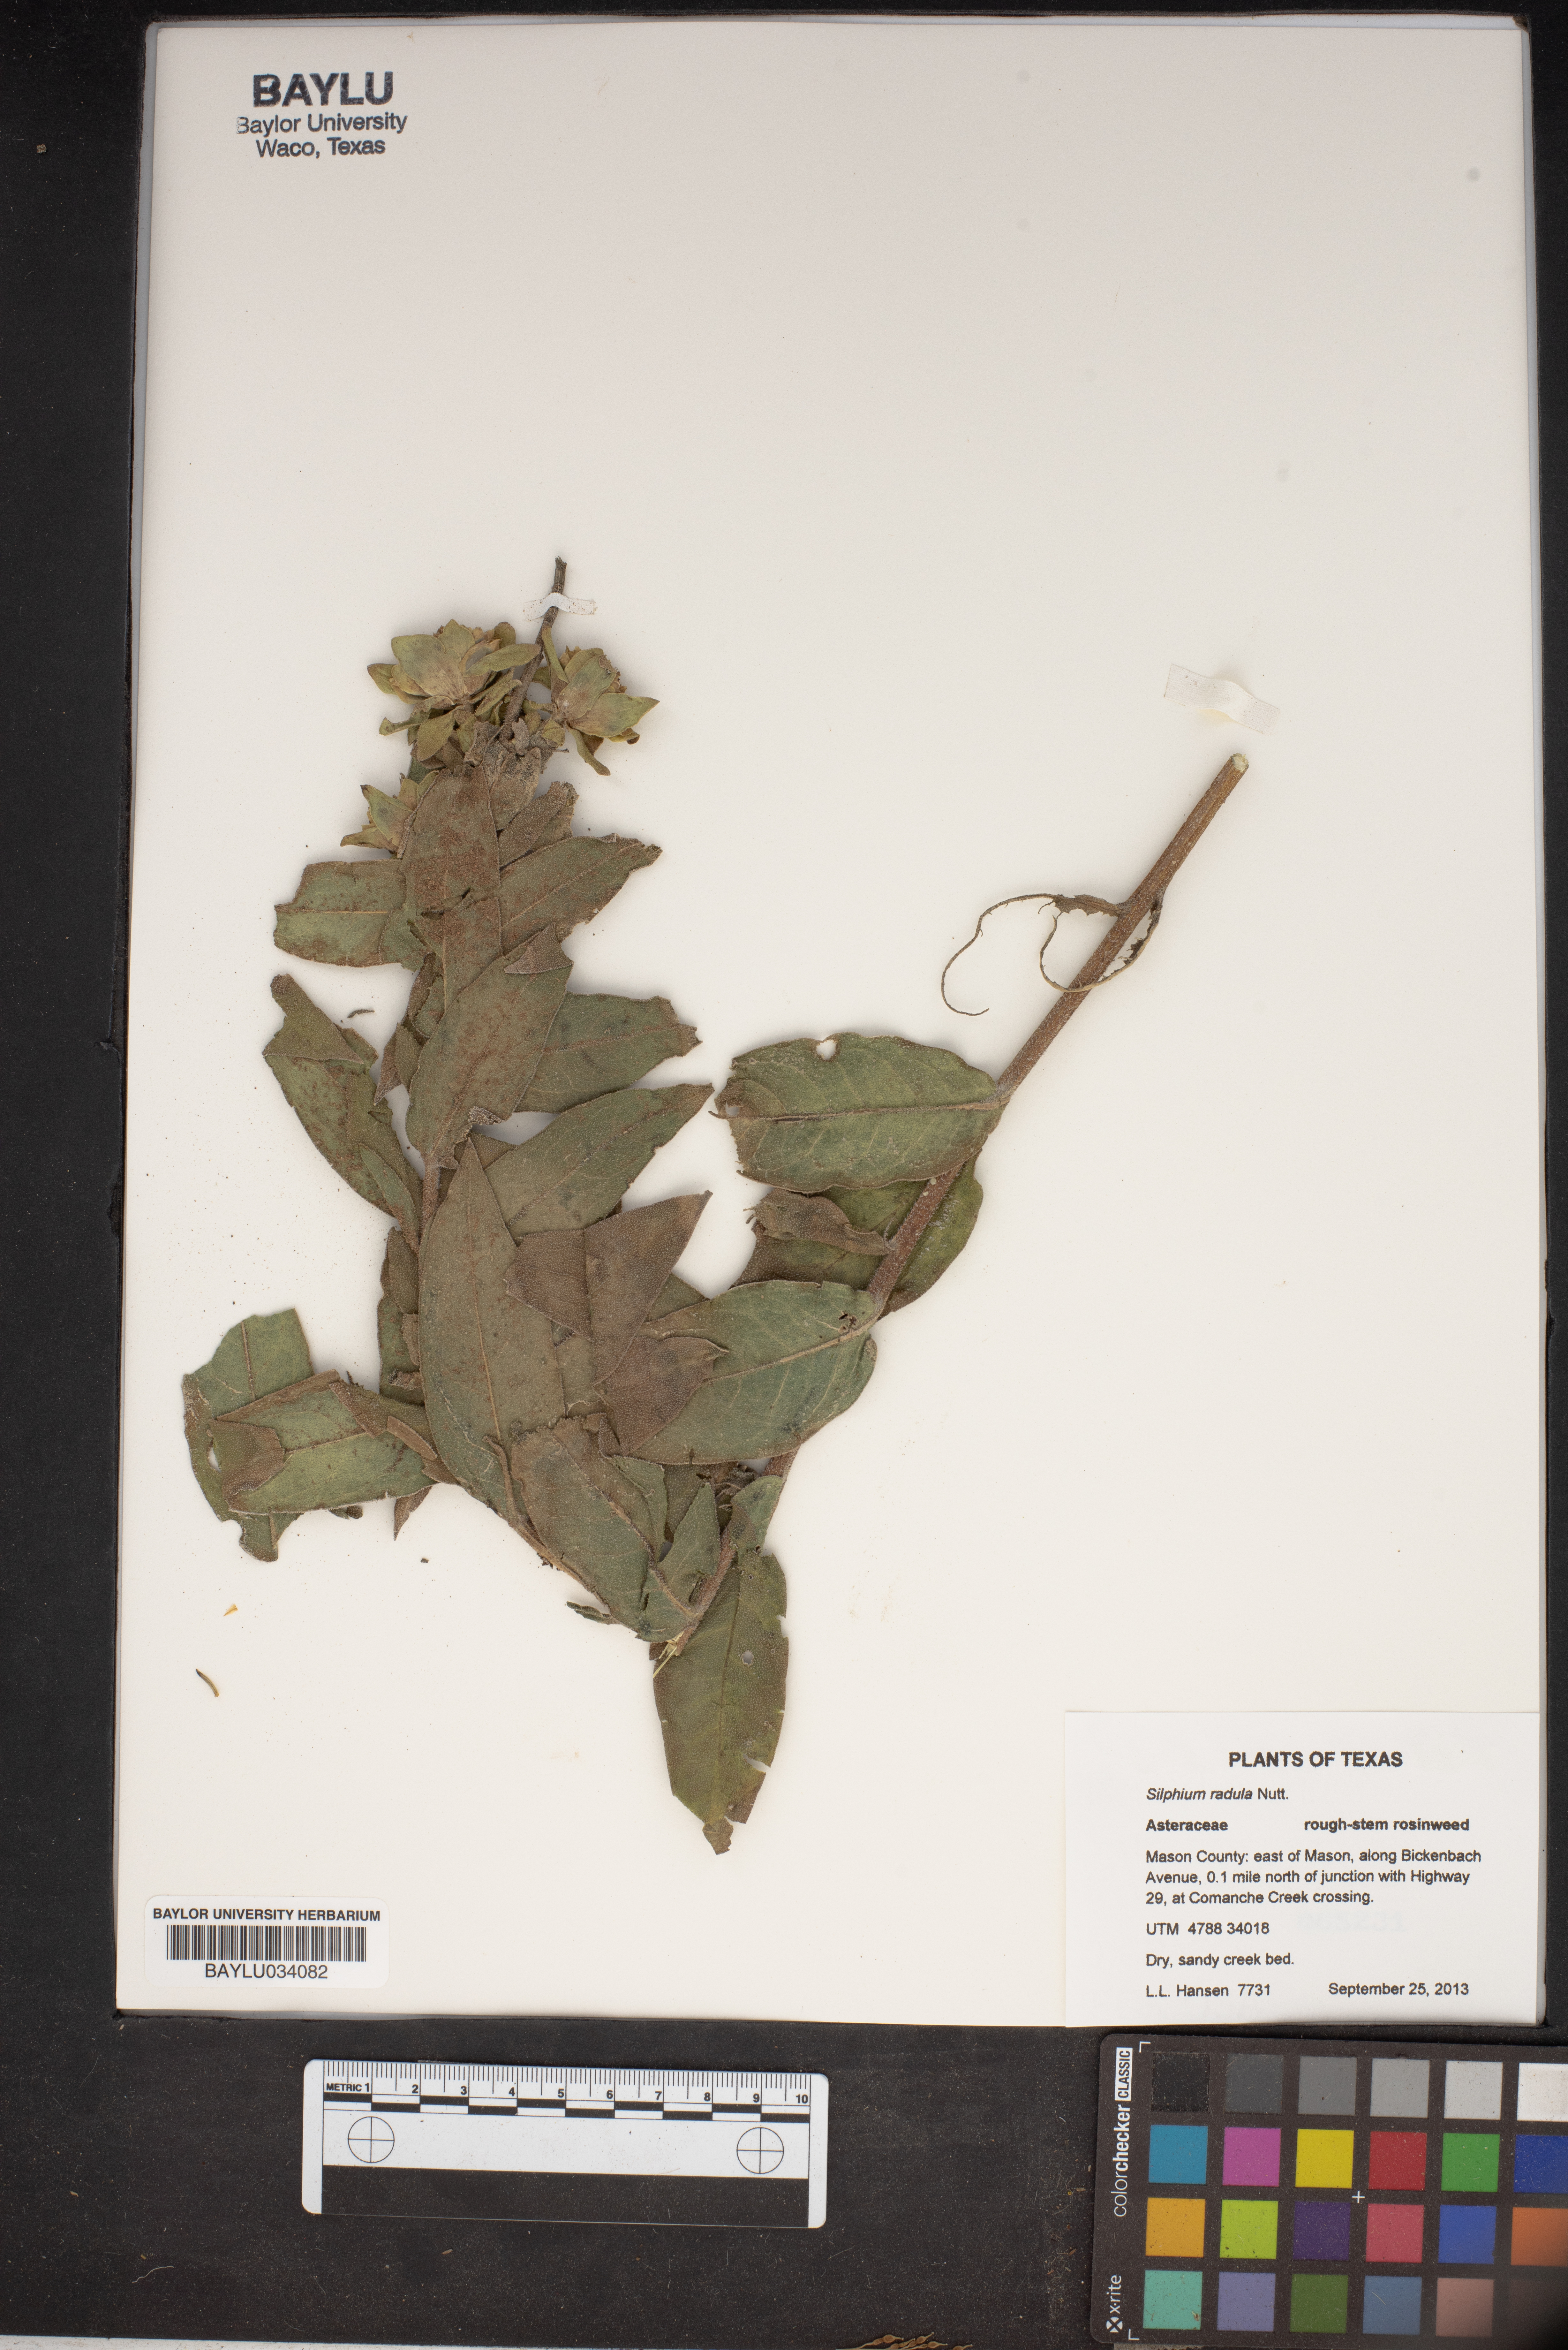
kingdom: Plantae
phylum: Tracheophyta
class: Magnoliopsida
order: Asterales
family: Asteraceae
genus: Silphium
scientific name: Silphium radula
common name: Roughleaf rosinweed
